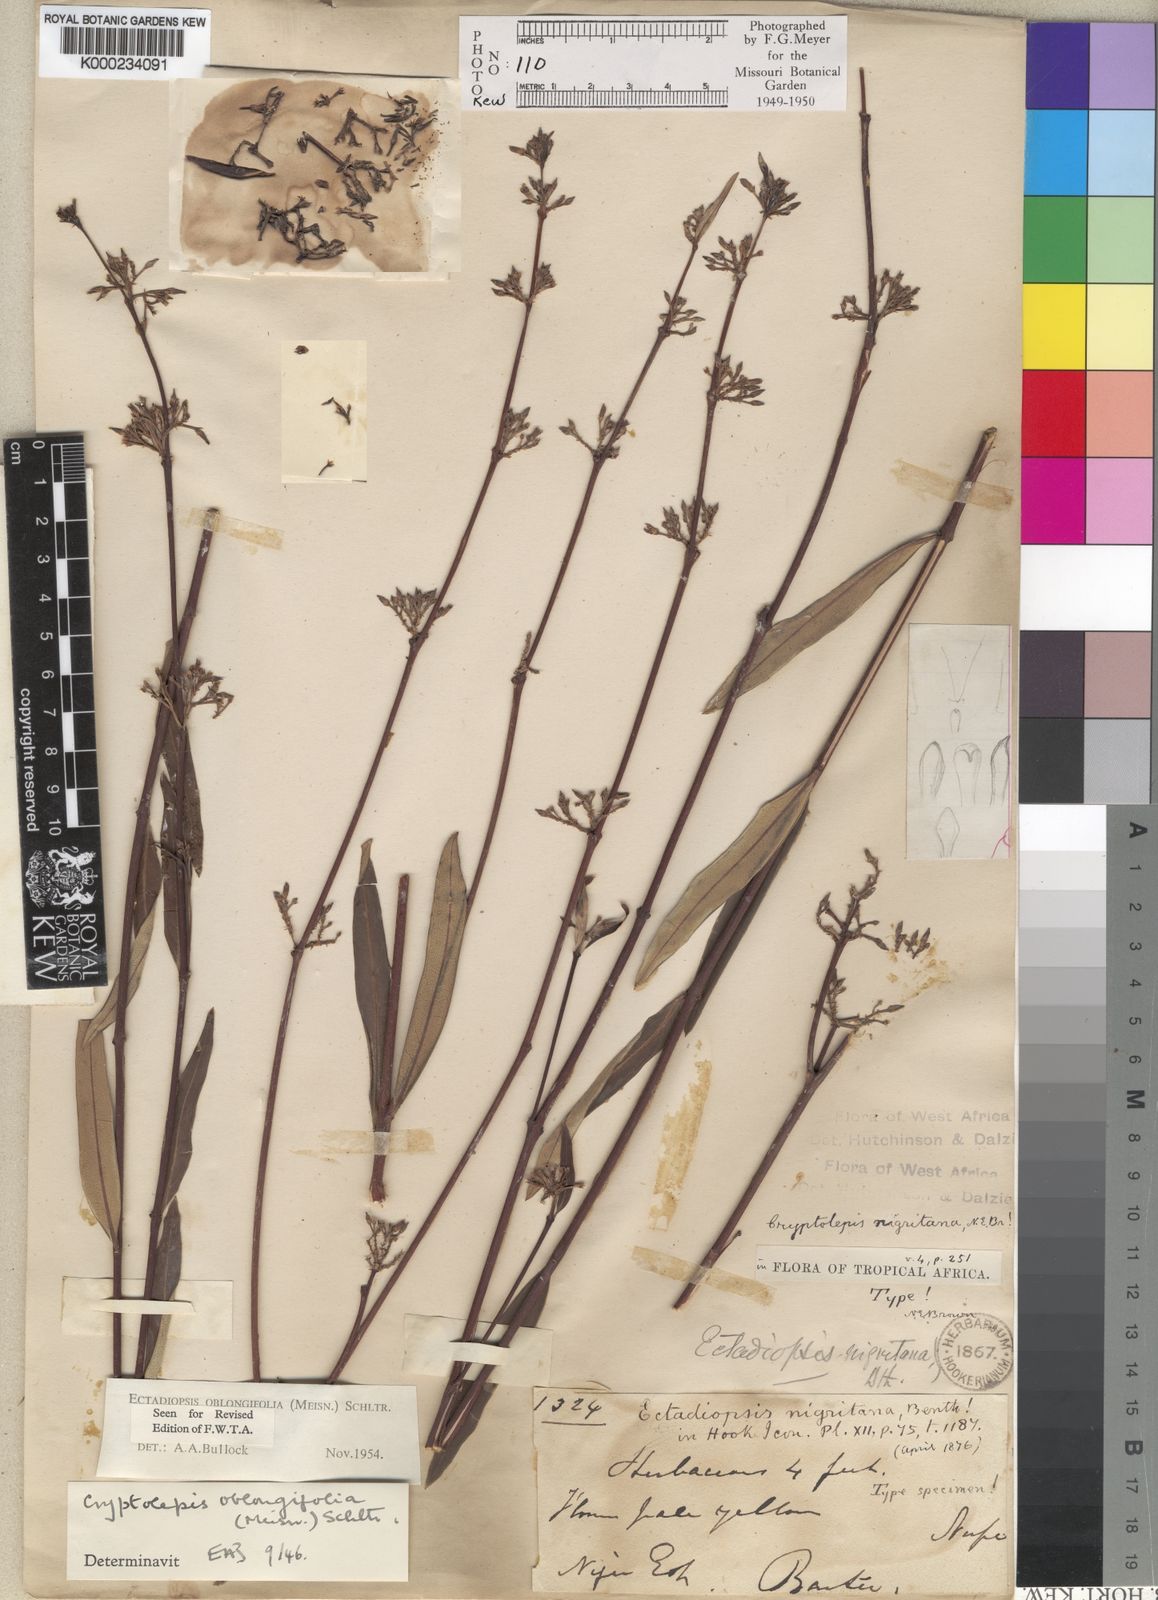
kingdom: Plantae
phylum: Tracheophyta
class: Magnoliopsida
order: Gentianales
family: Apocynaceae
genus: Cryptolepis
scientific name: Cryptolepis oblongifolia
